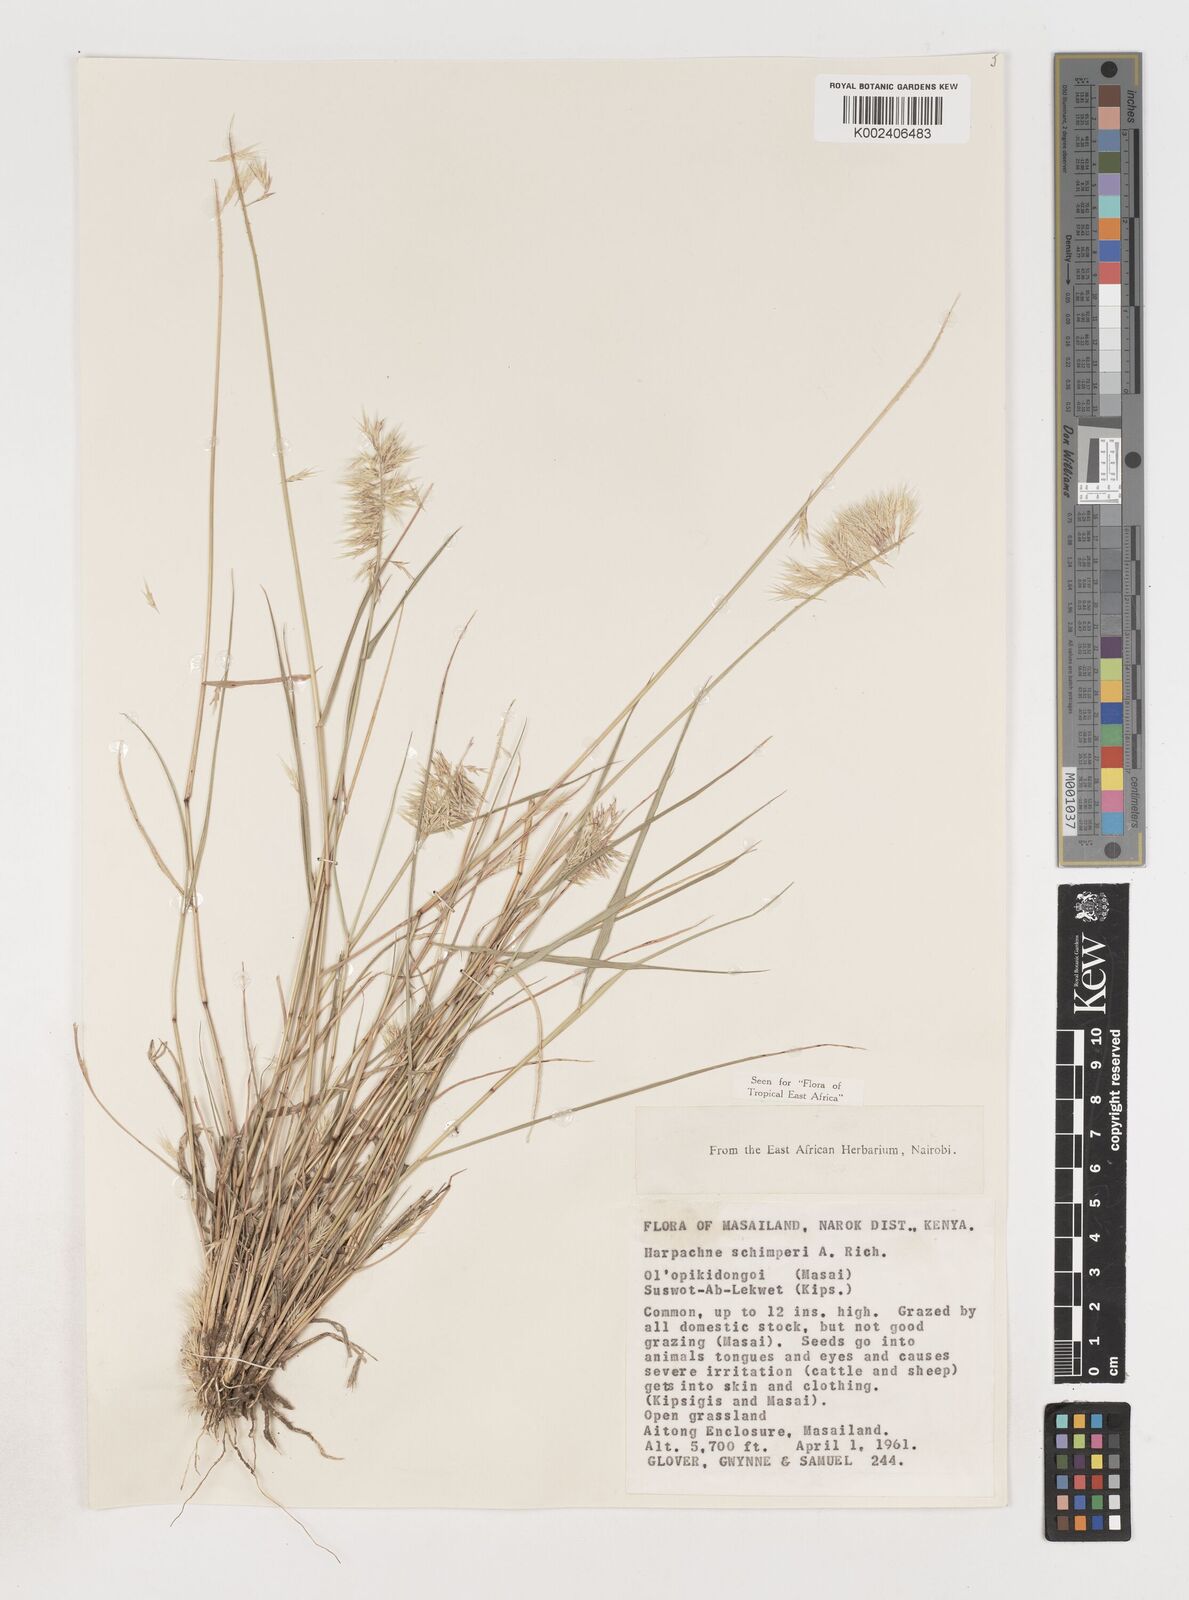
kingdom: Plantae
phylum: Tracheophyta
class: Liliopsida
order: Poales
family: Poaceae
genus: Harpachne
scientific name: Harpachne schimperi
